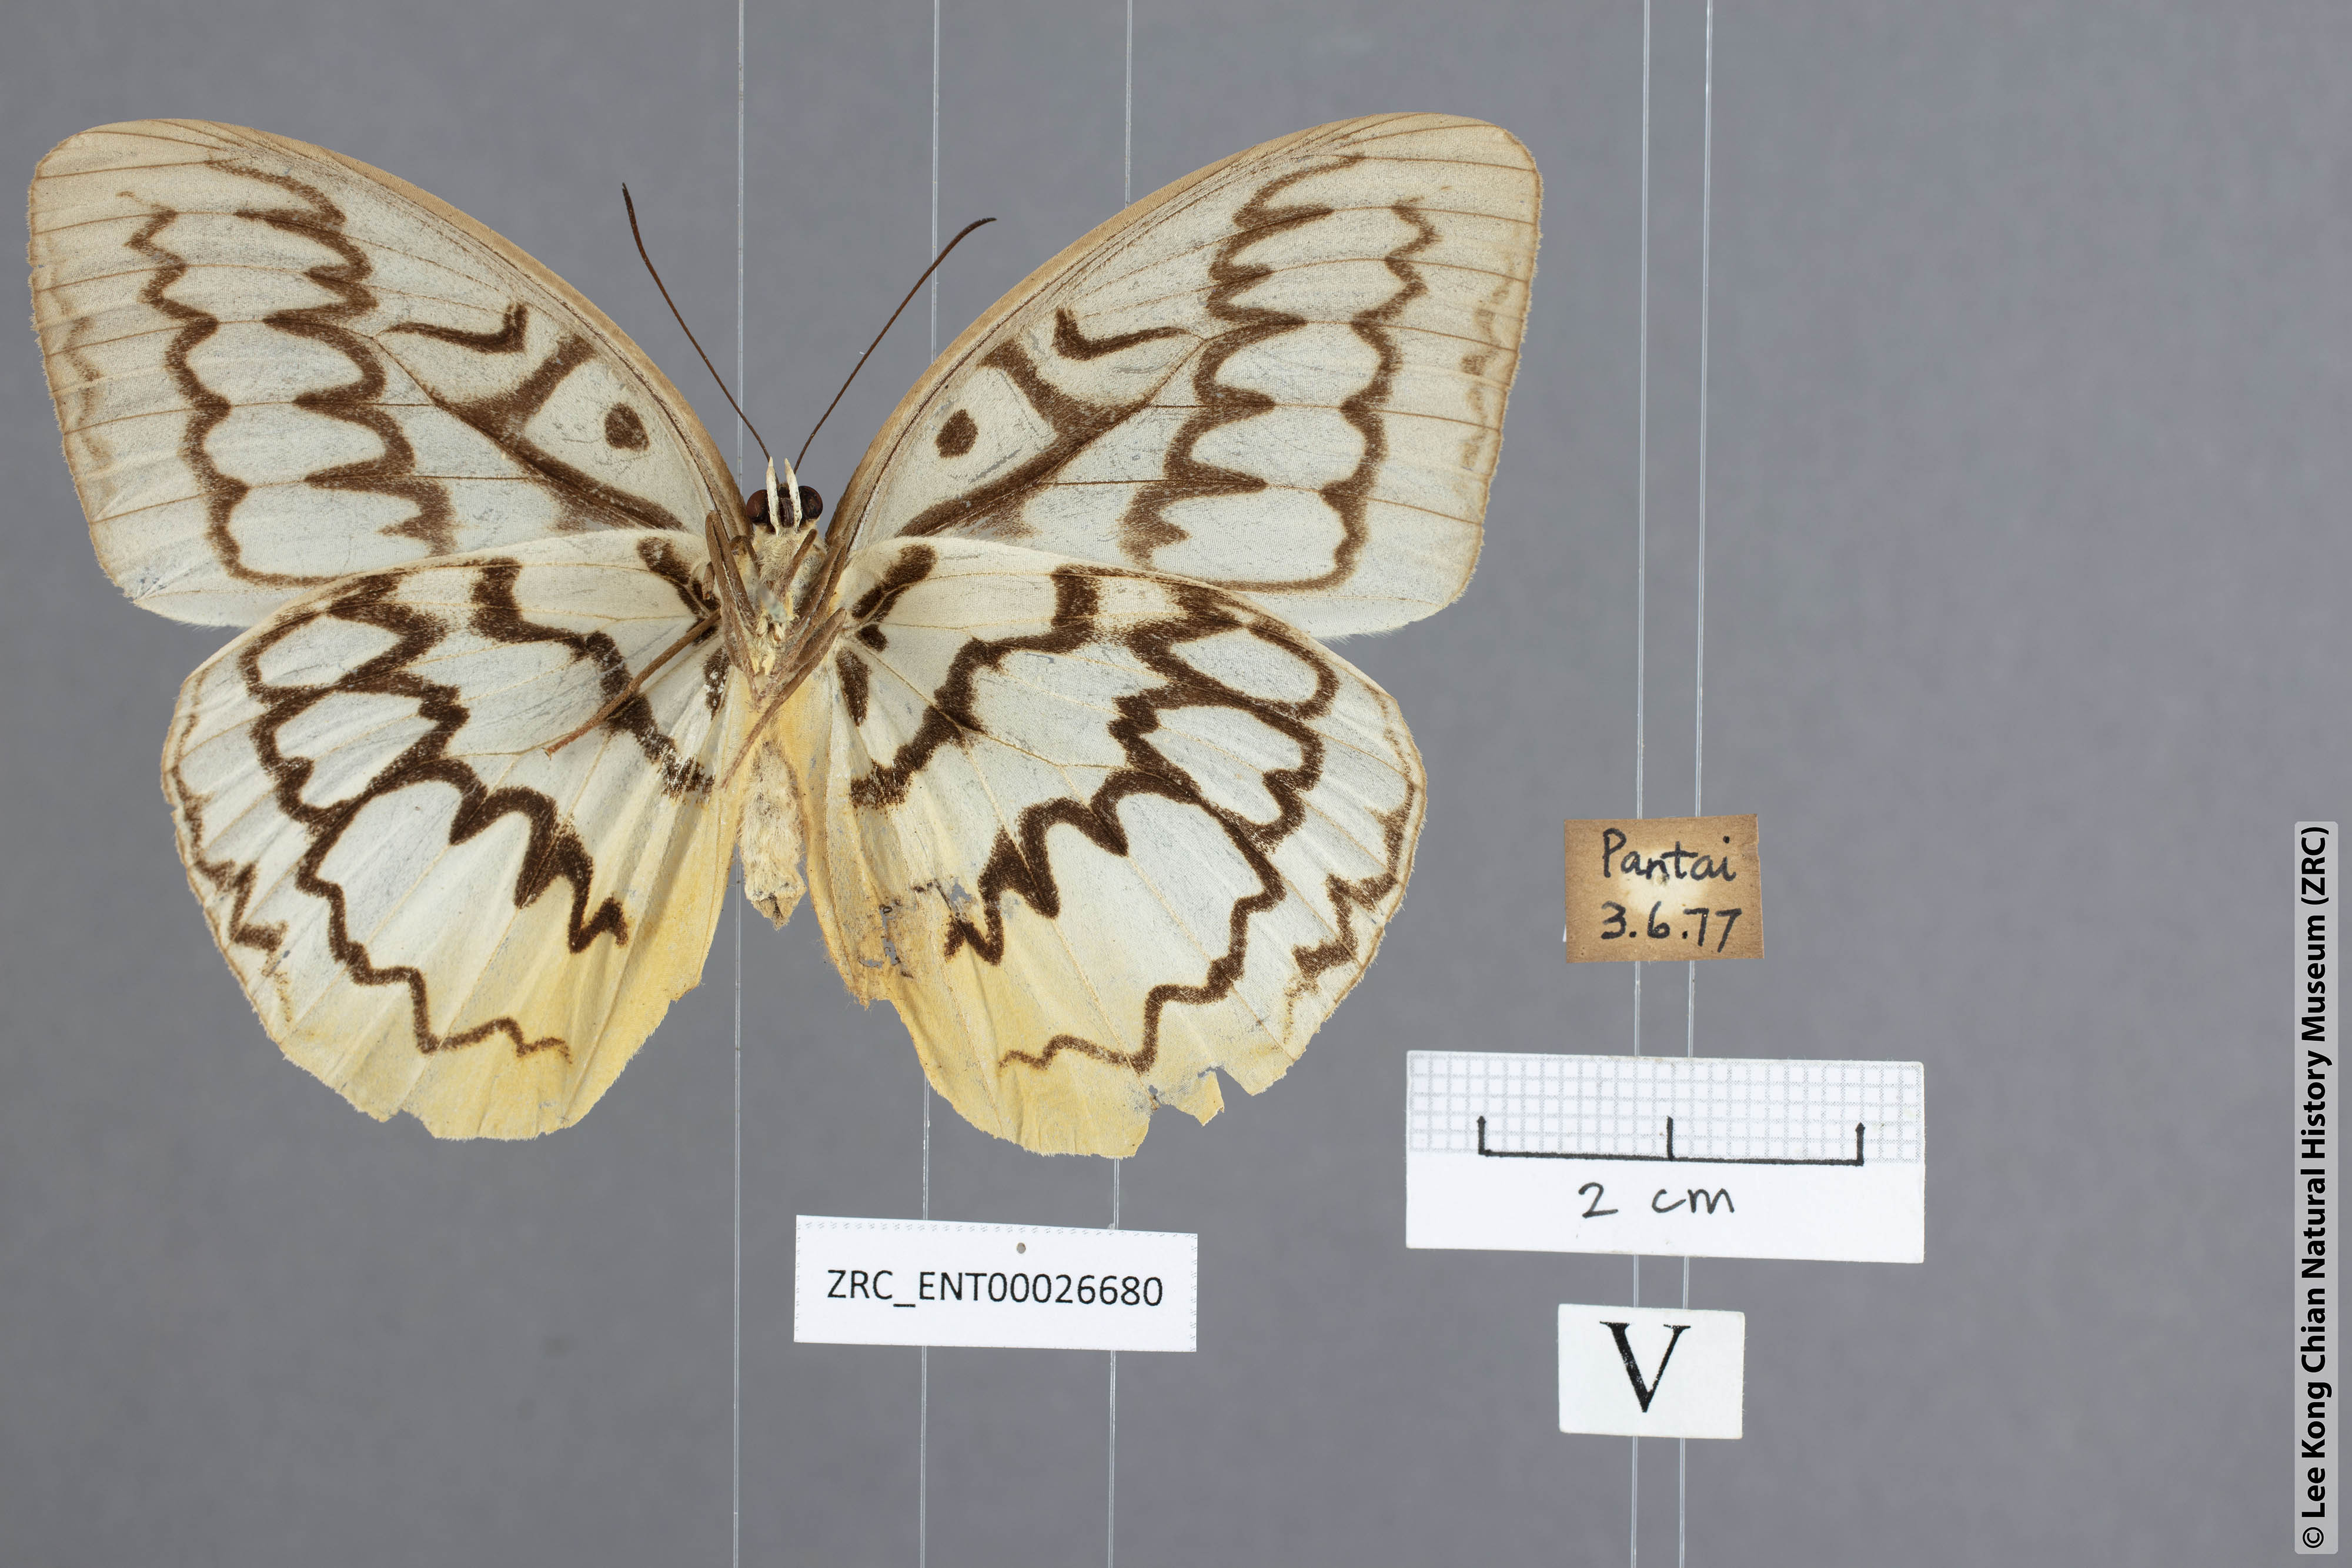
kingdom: Animalia
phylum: Arthropoda
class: Insecta
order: Lepidoptera
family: Nymphalidae
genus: Faunis
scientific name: Faunis Melanocyma faunula
